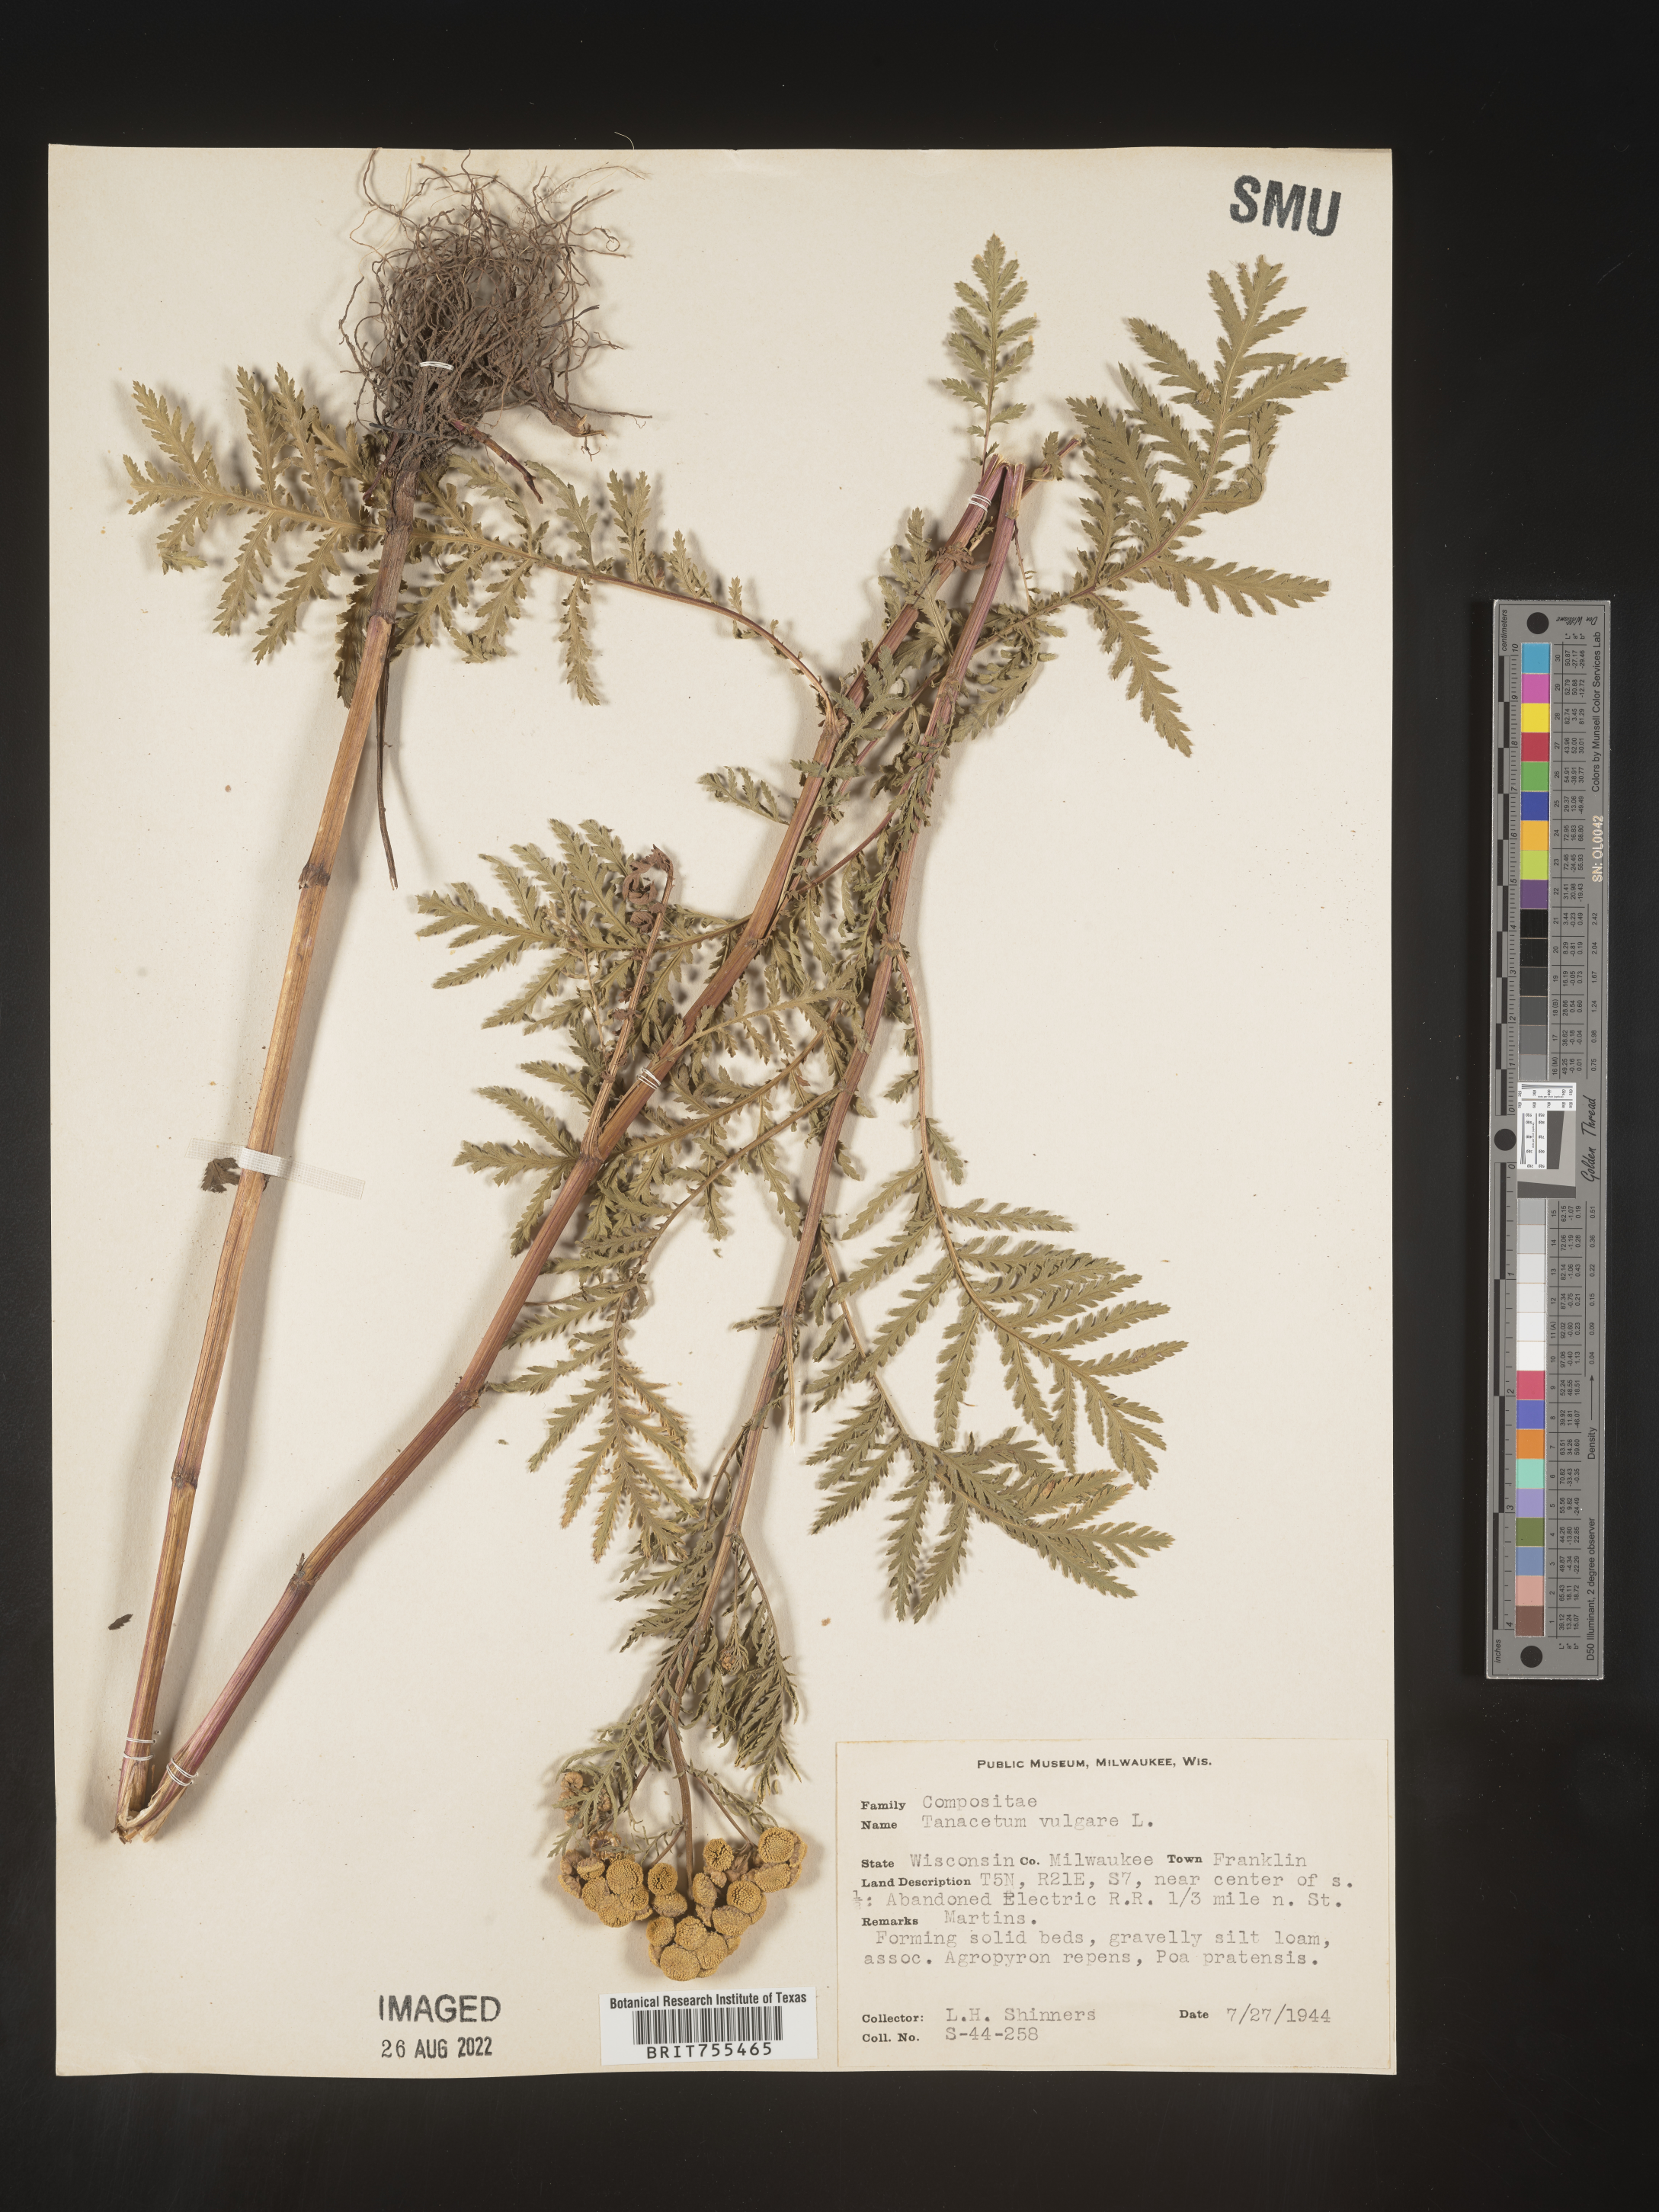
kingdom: Plantae
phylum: Tracheophyta
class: Magnoliopsida
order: Asterales
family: Asteraceae
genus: Tanacetum
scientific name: Tanacetum vulgare
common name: Common tansy
